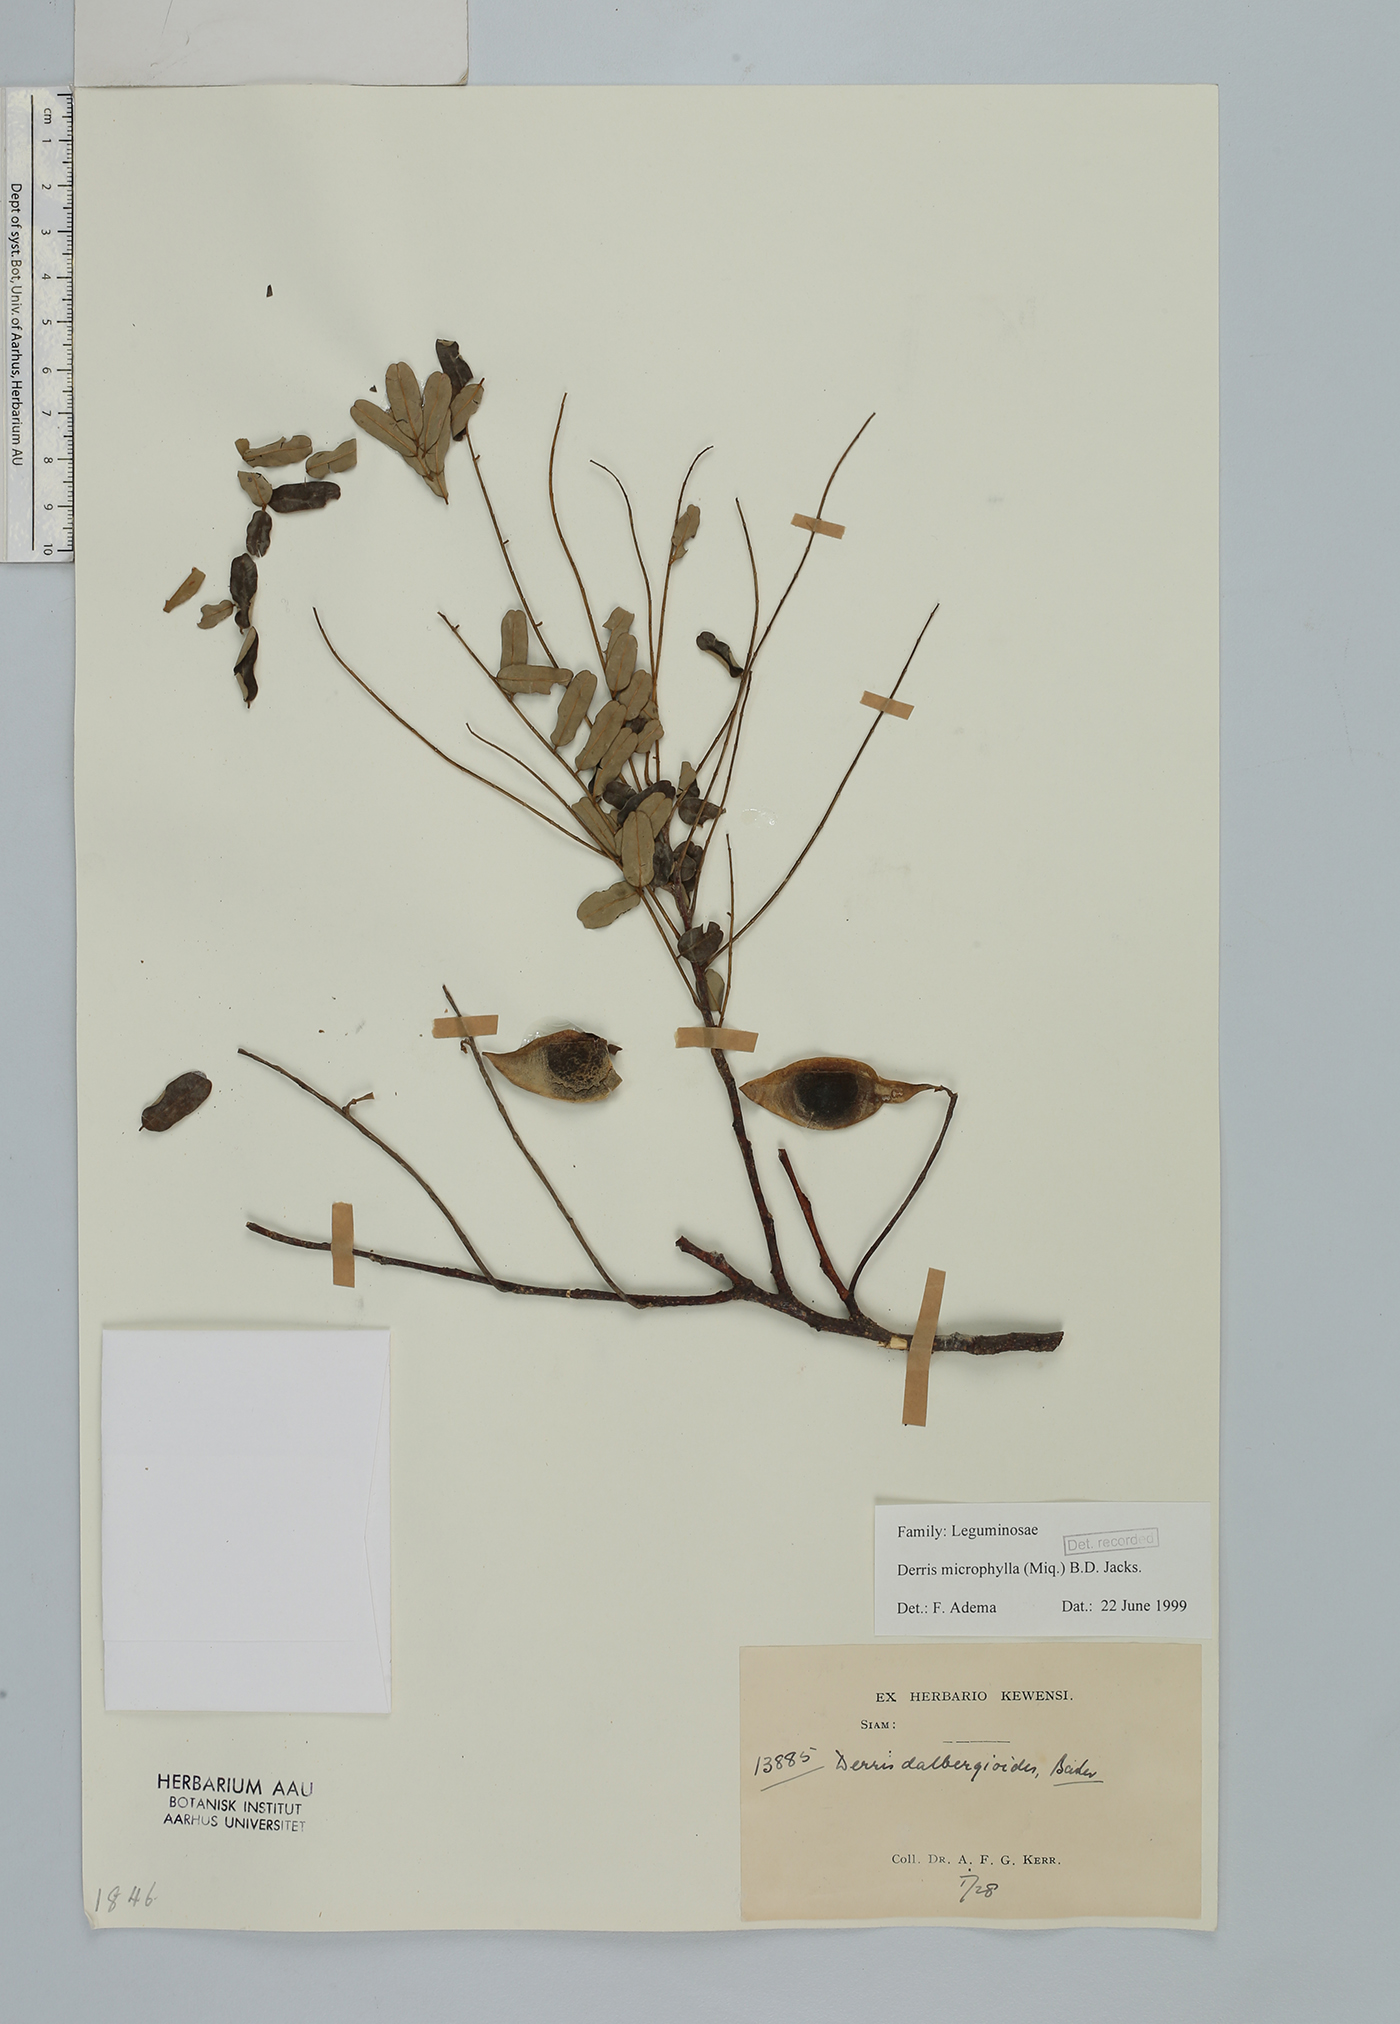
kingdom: Plantae
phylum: Tracheophyta
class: Magnoliopsida
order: Fabales
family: Fabaceae
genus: Brachypterum
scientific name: Brachypterum microphyllum
